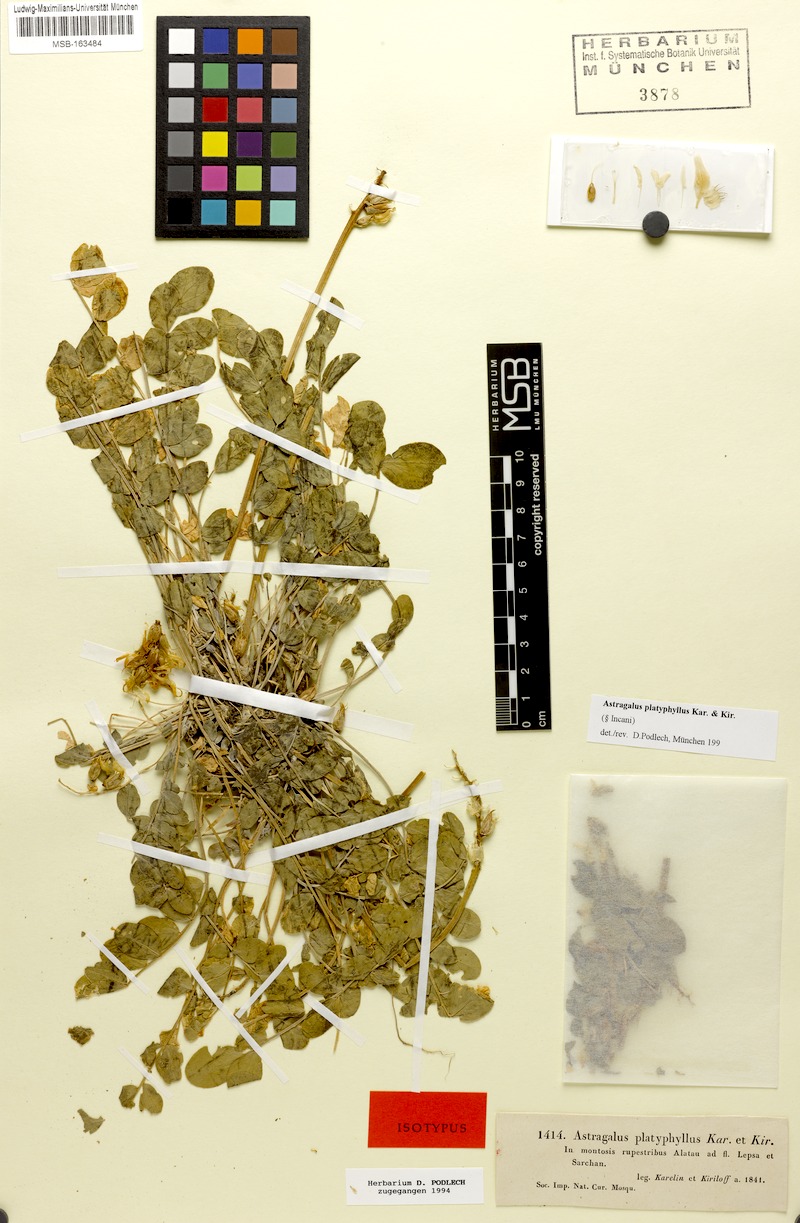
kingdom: Plantae
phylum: Tracheophyta
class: Magnoliopsida
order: Fabales
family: Fabaceae
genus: Astragalus
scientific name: Astragalus platyphyllus
